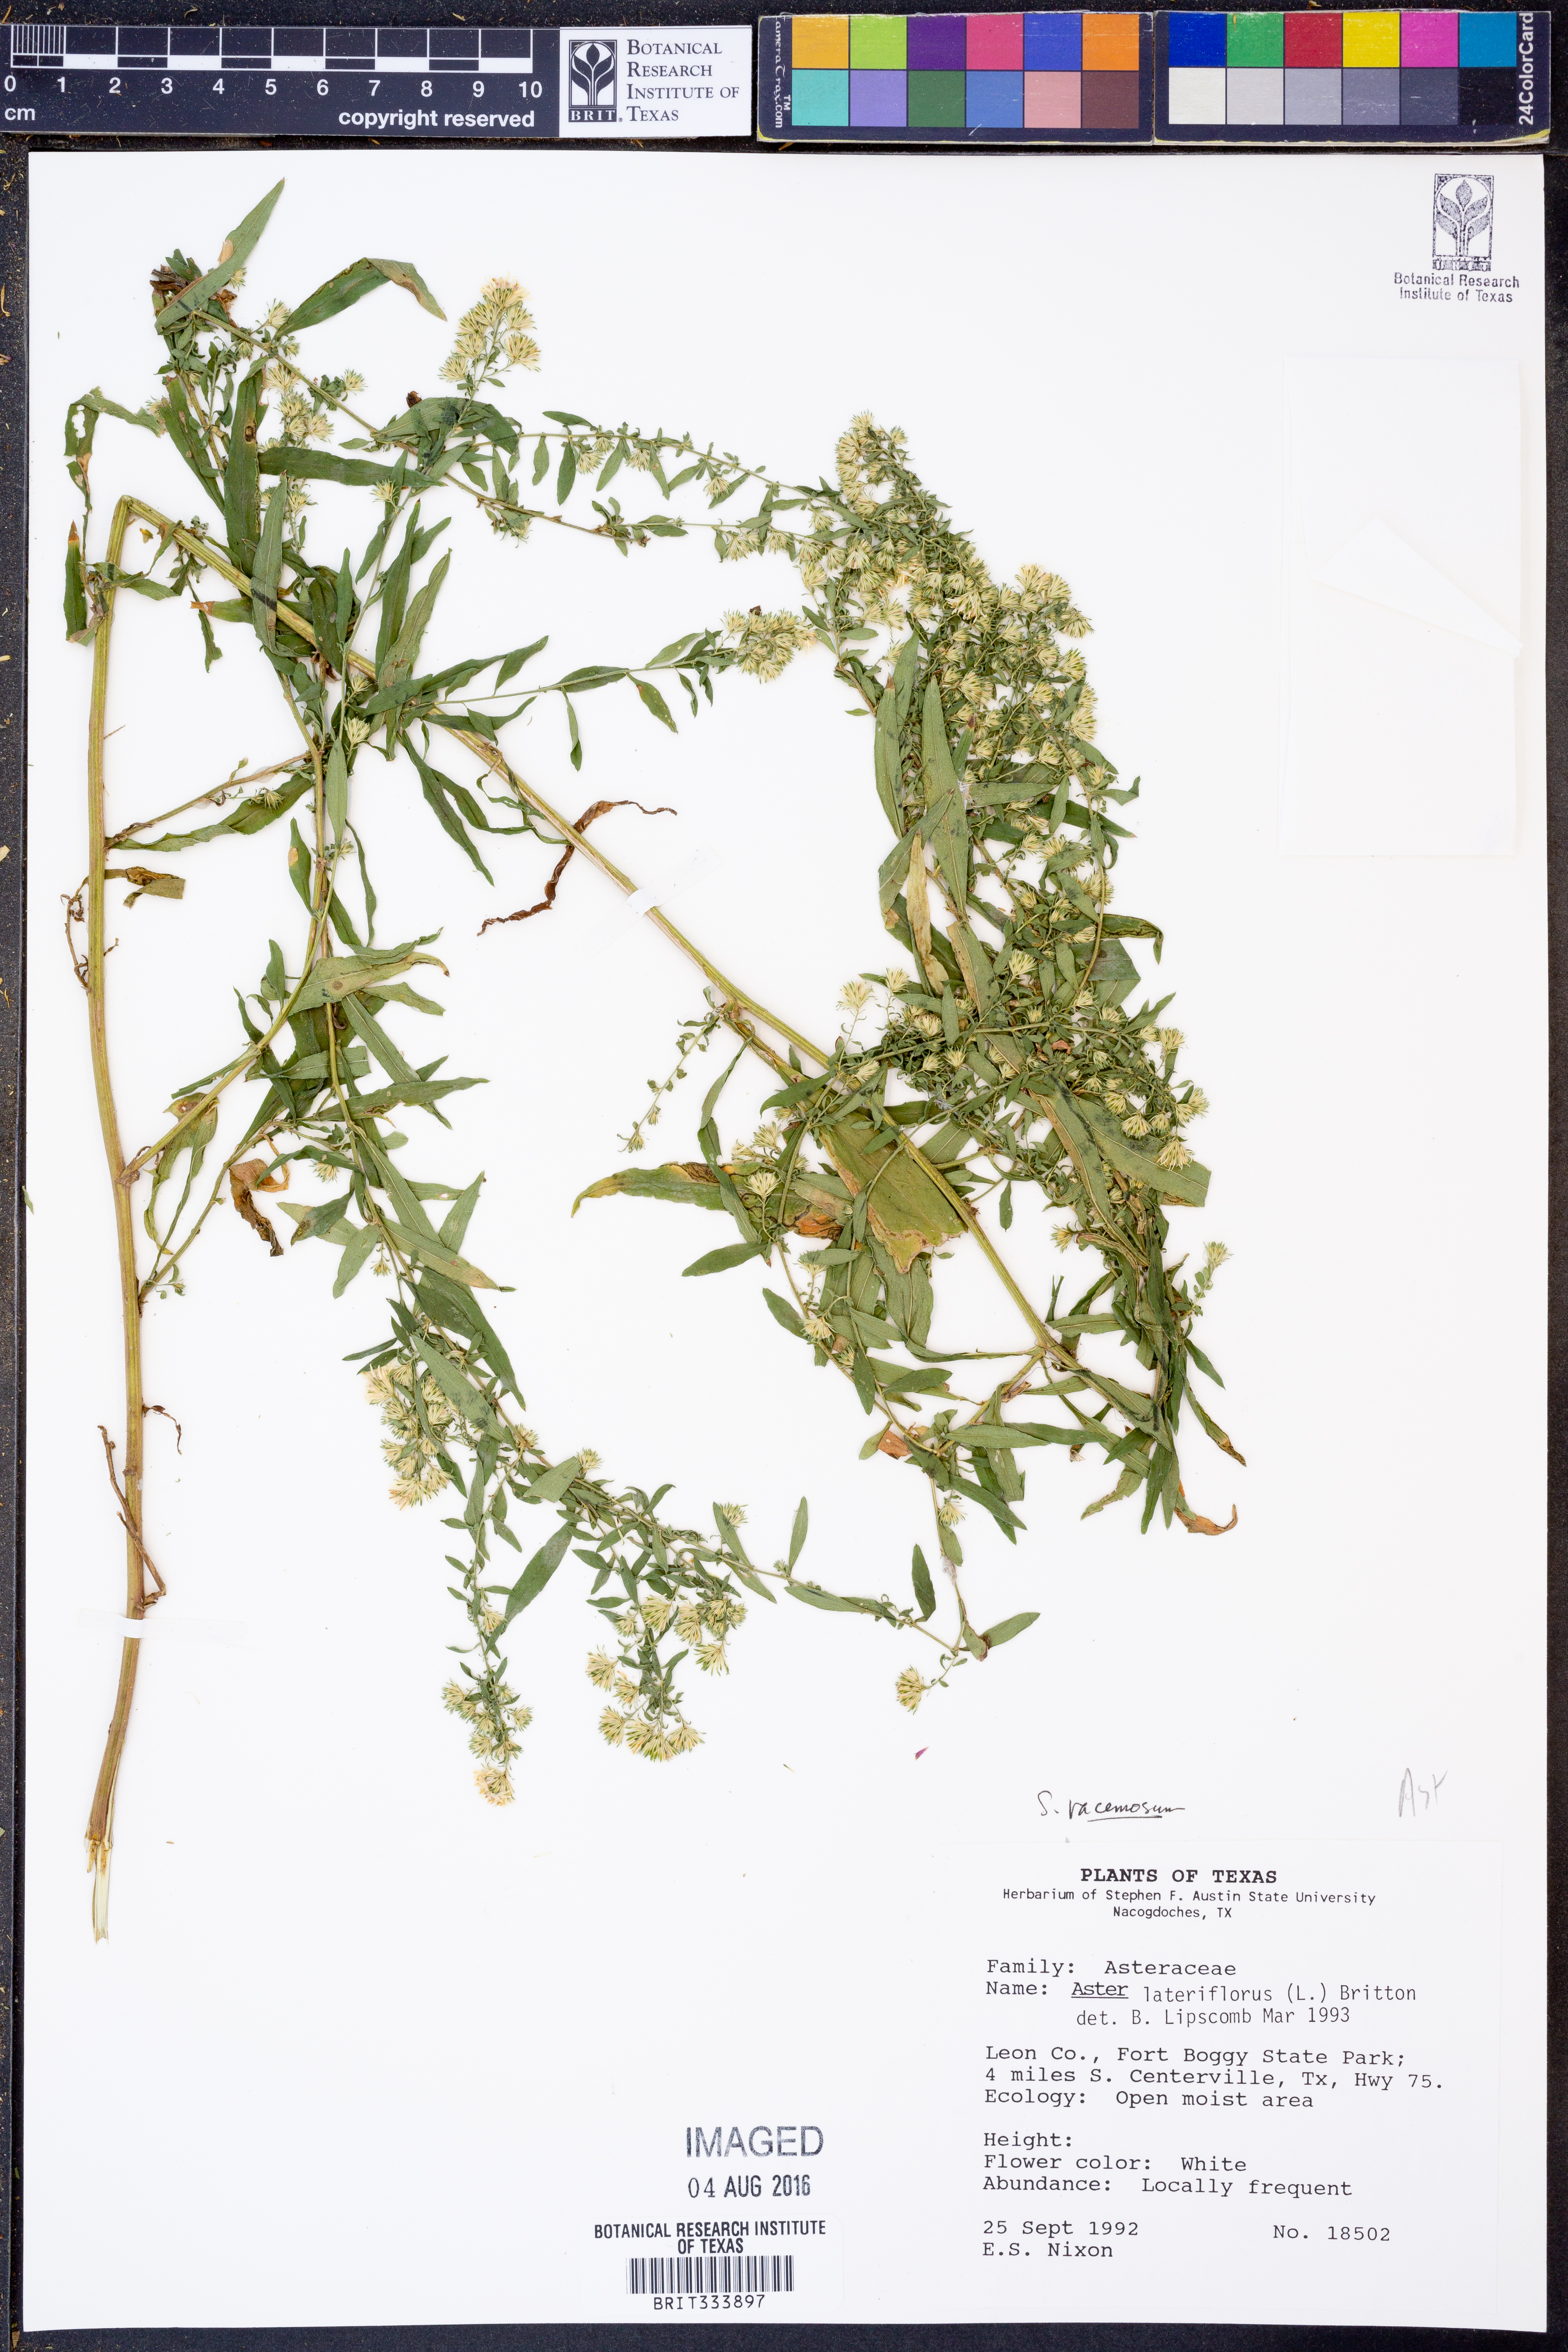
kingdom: Plantae
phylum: Tracheophyta
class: Magnoliopsida
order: Asterales
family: Asteraceae
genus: Symphyotrichum
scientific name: Symphyotrichum racemosum
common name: Small white aster
